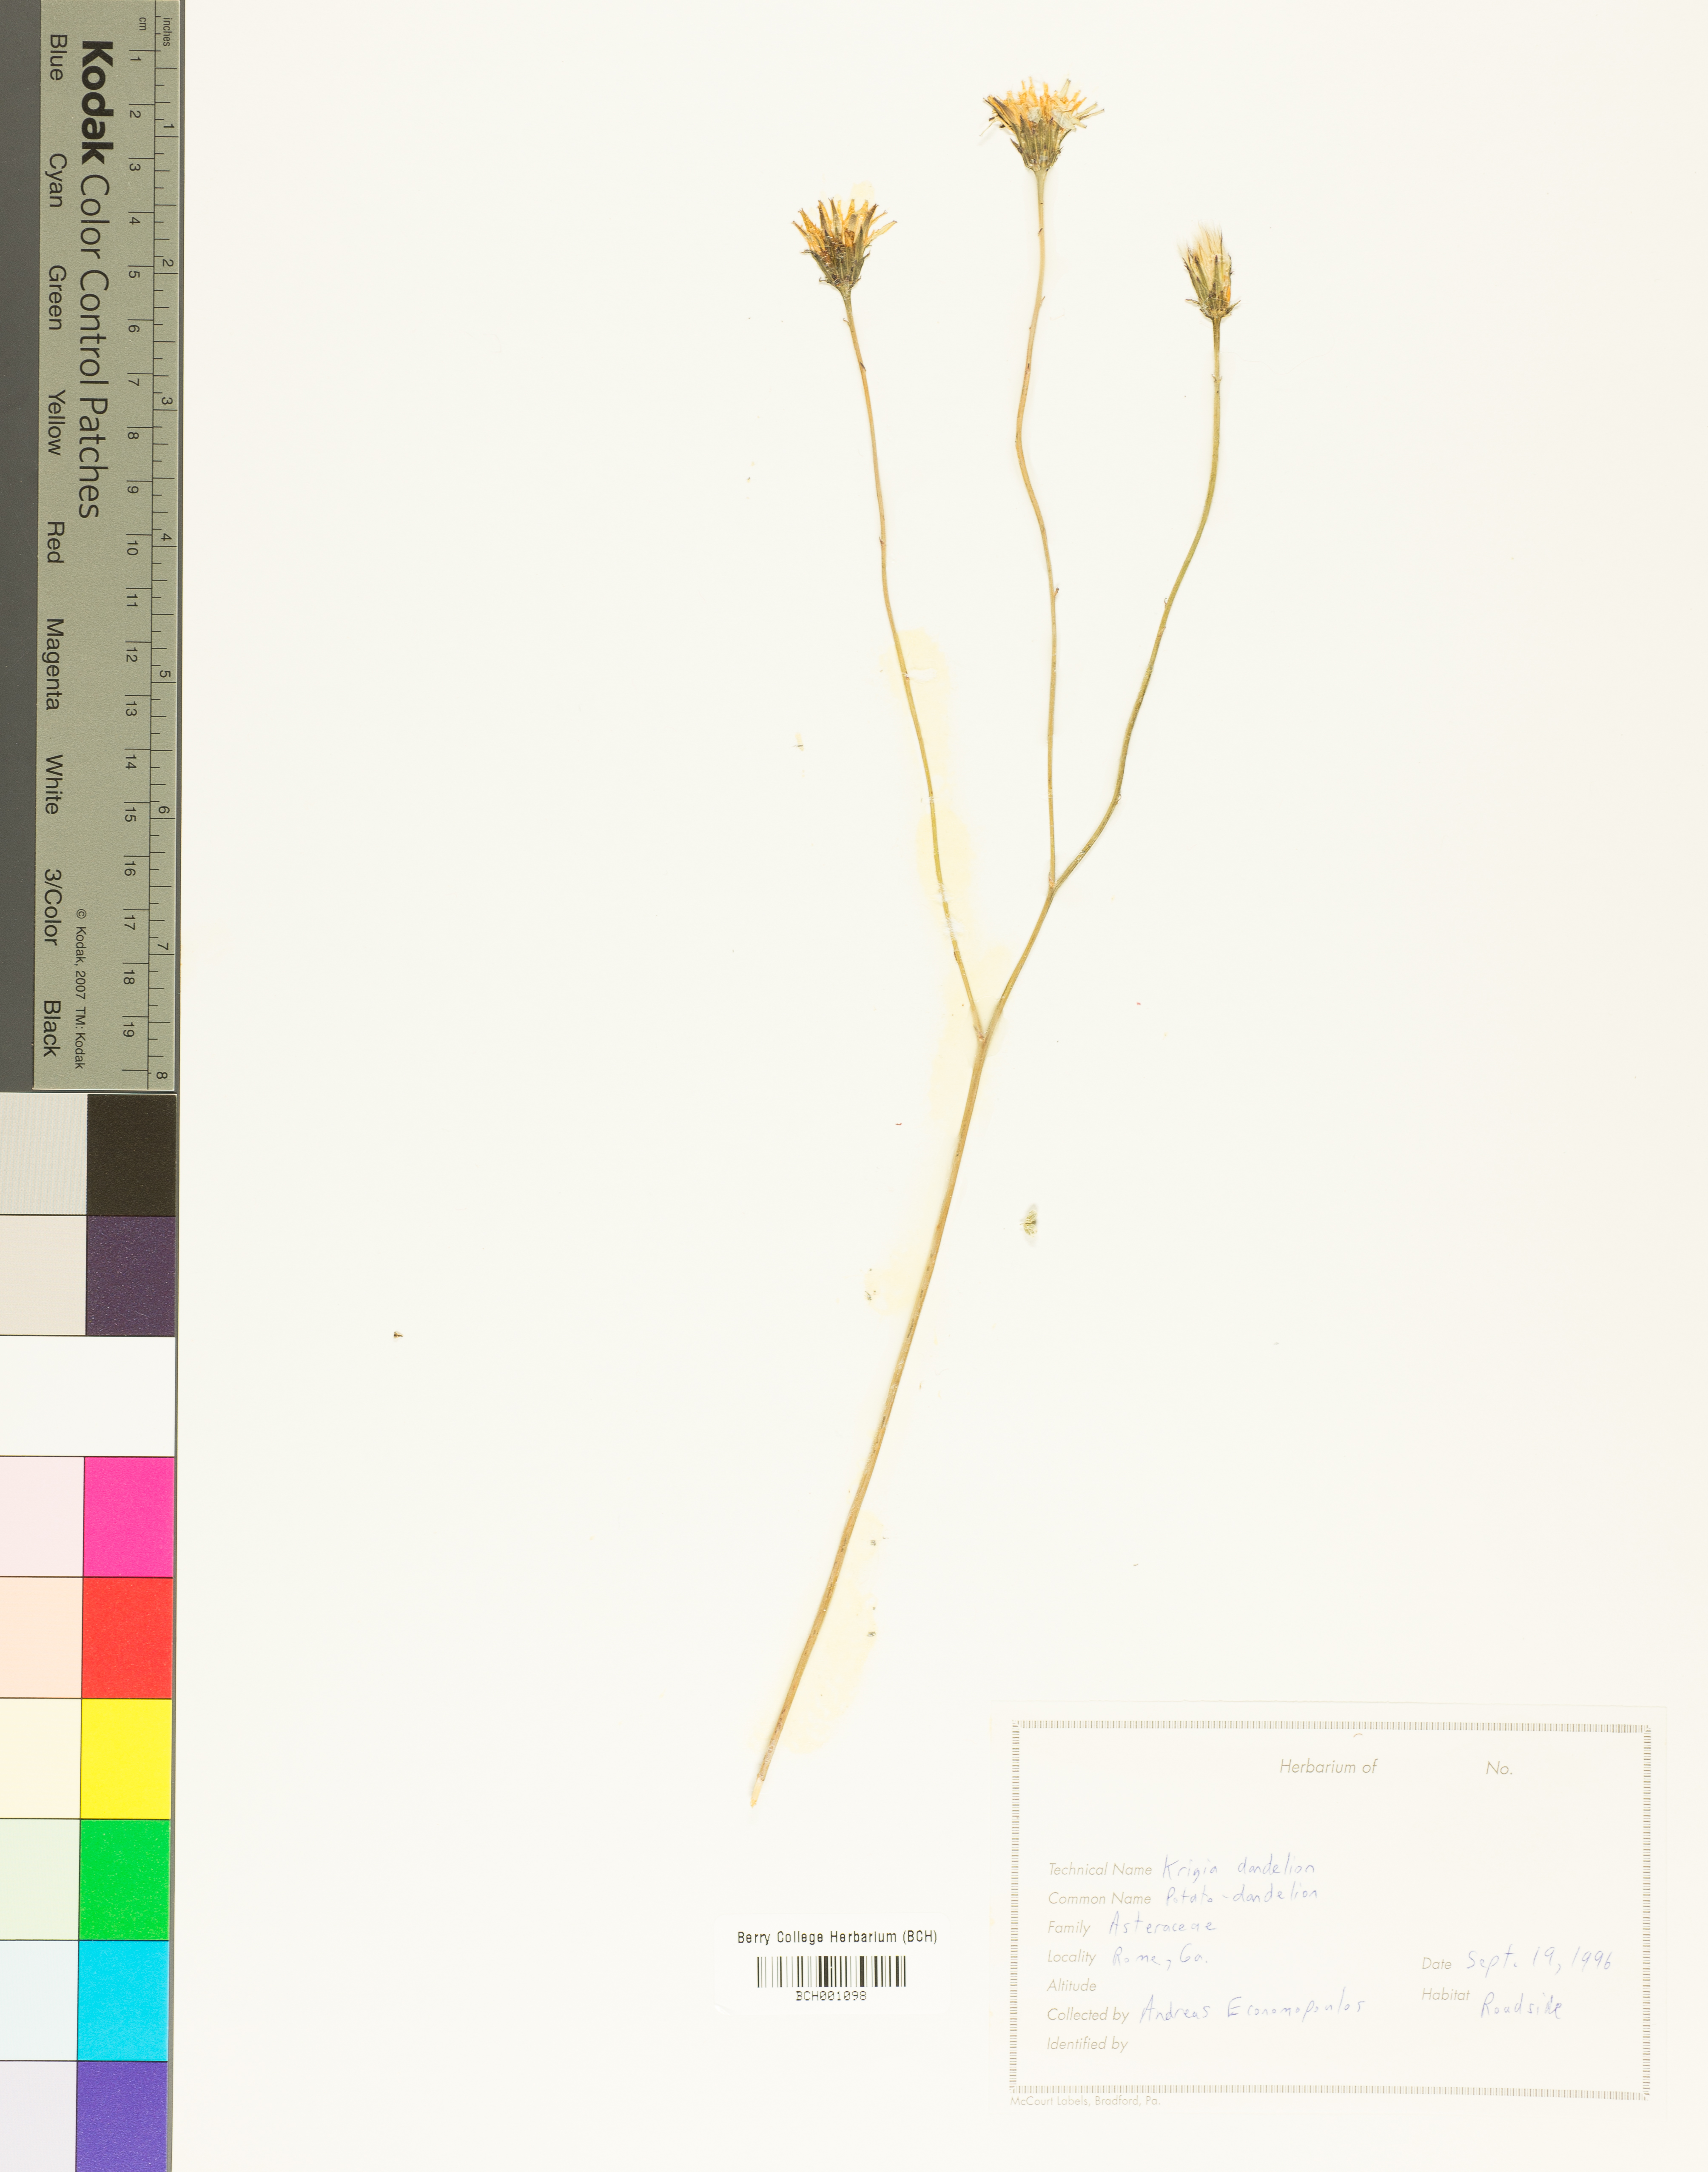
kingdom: Plantae
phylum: Tracheophyta
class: Magnoliopsida
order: Asterales
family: Asteraceae
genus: Krigia
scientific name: Krigia dandelion
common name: Colonial dwarf-dandelion
